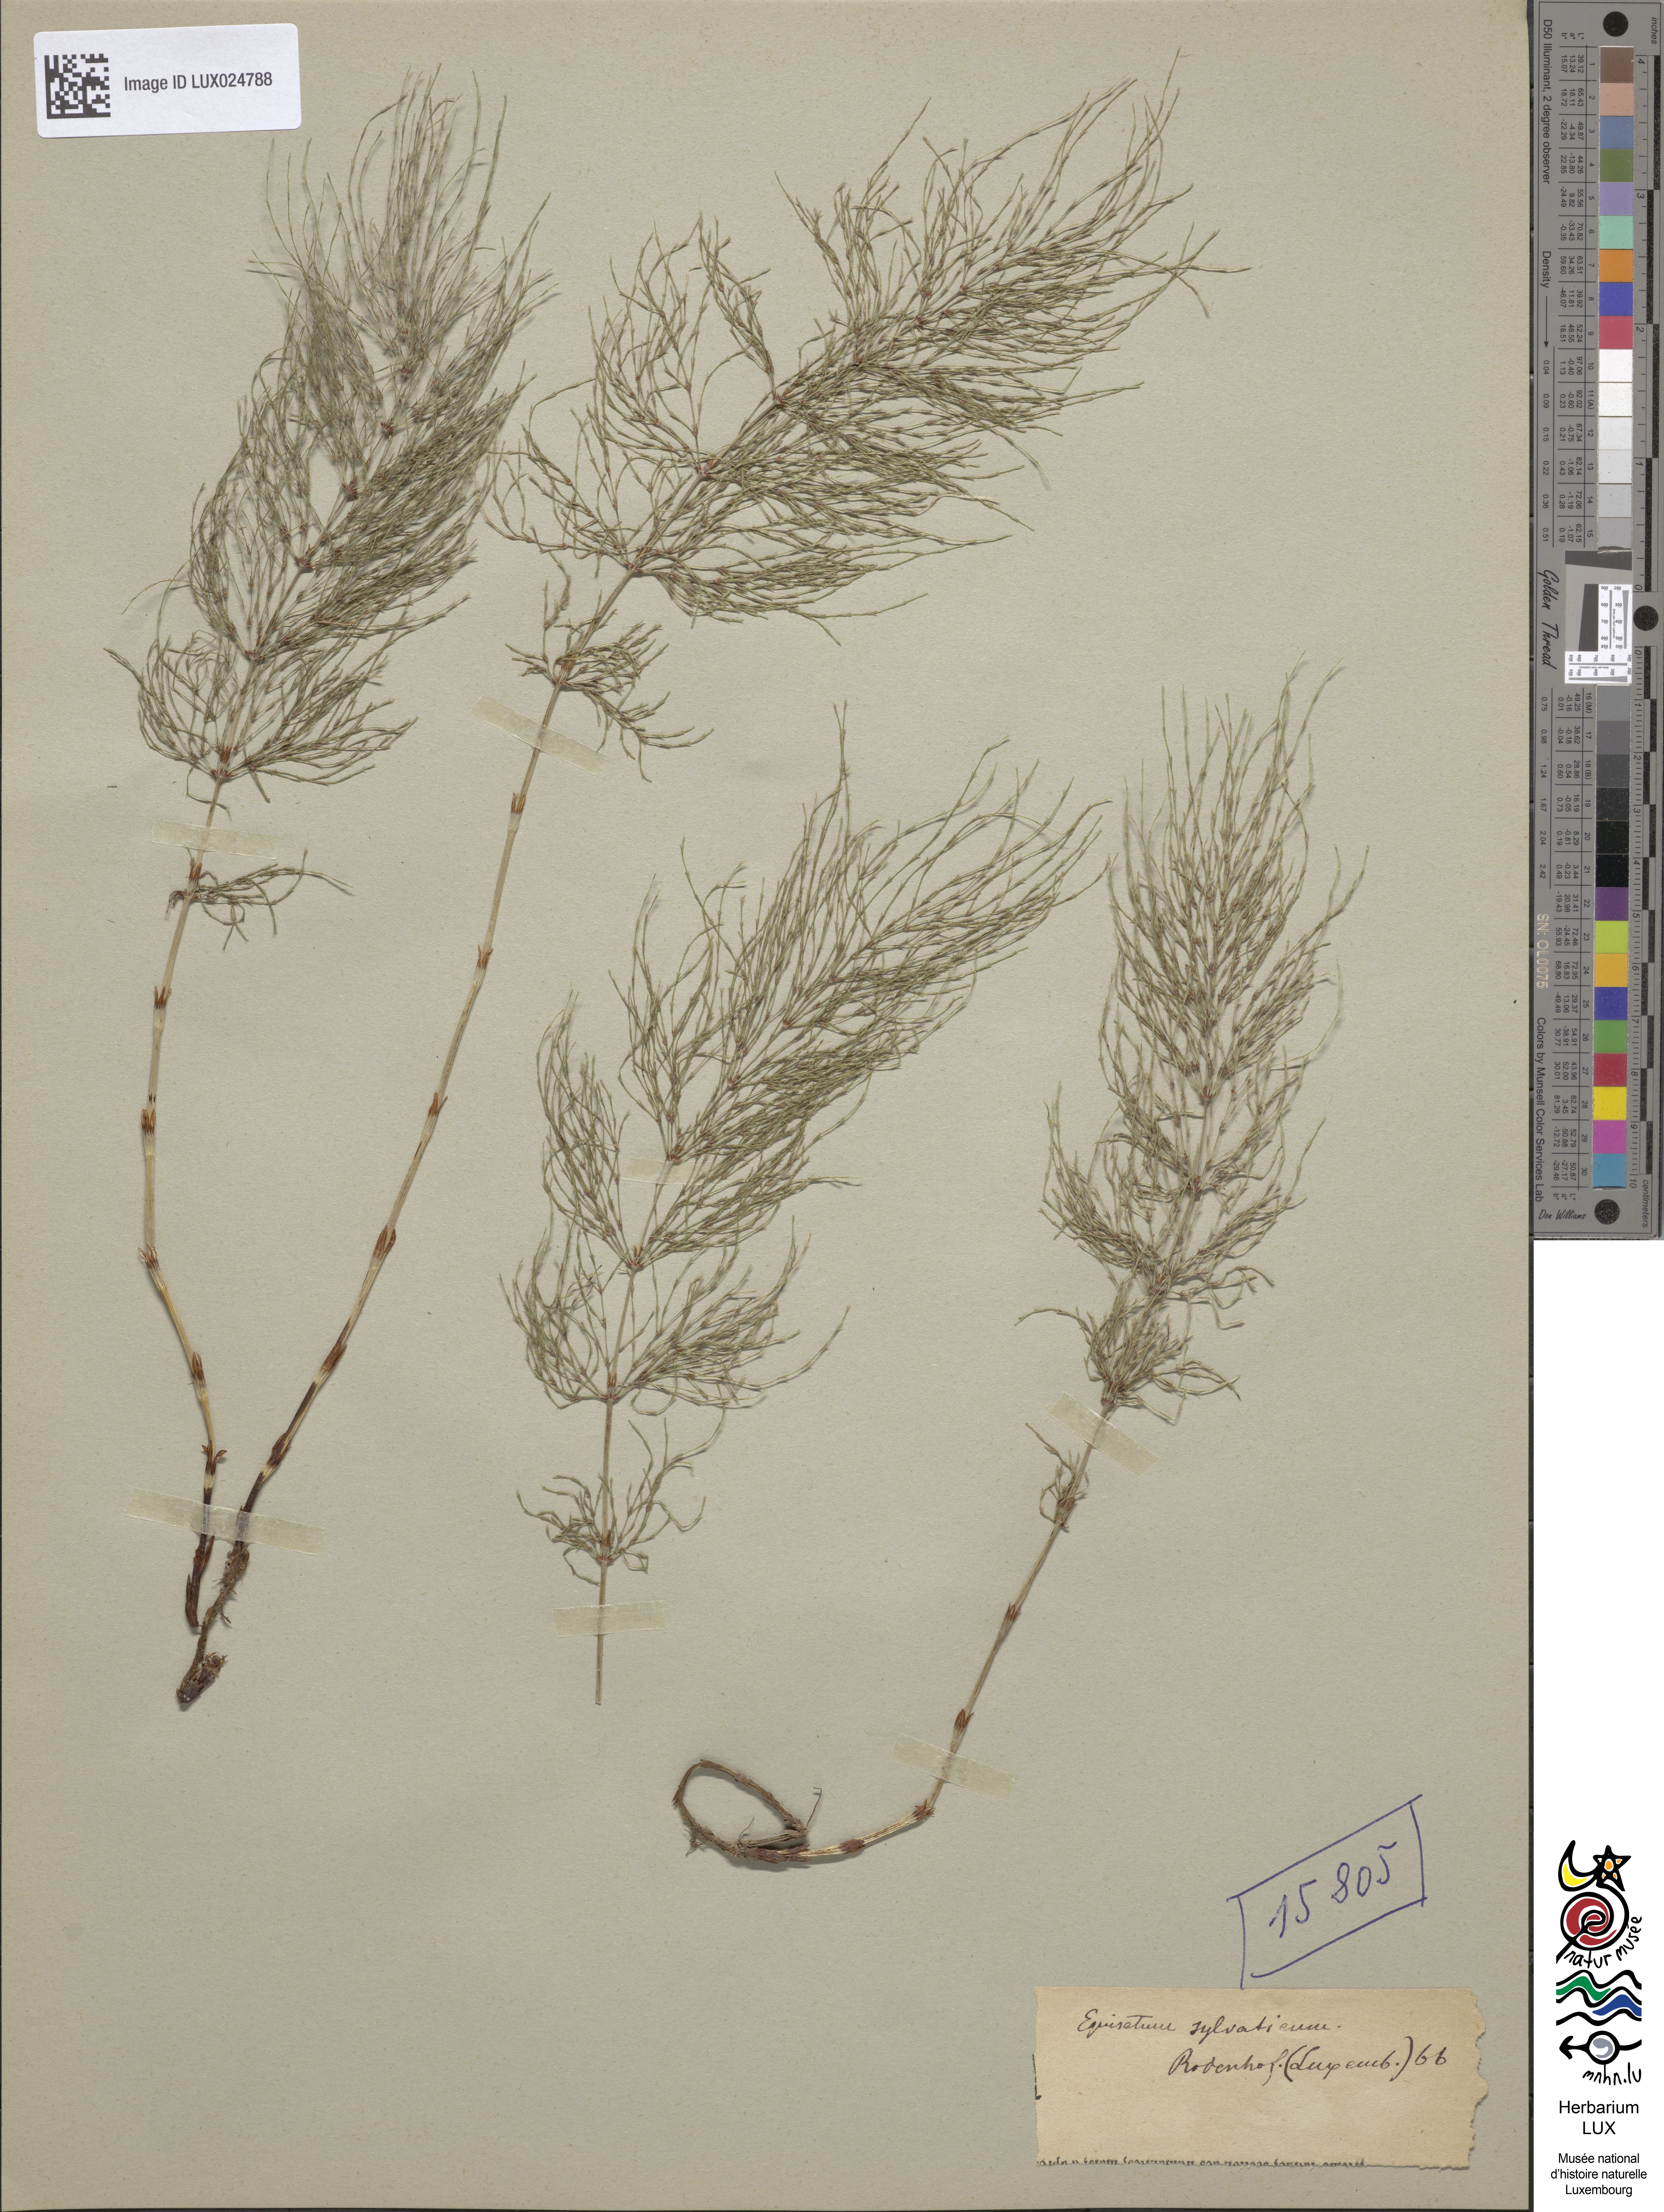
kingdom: Plantae
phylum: Tracheophyta
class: Polypodiopsida
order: Equisetales
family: Equisetaceae
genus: Equisetum
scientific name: Equisetum sylvaticum
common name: Wood horsetail
